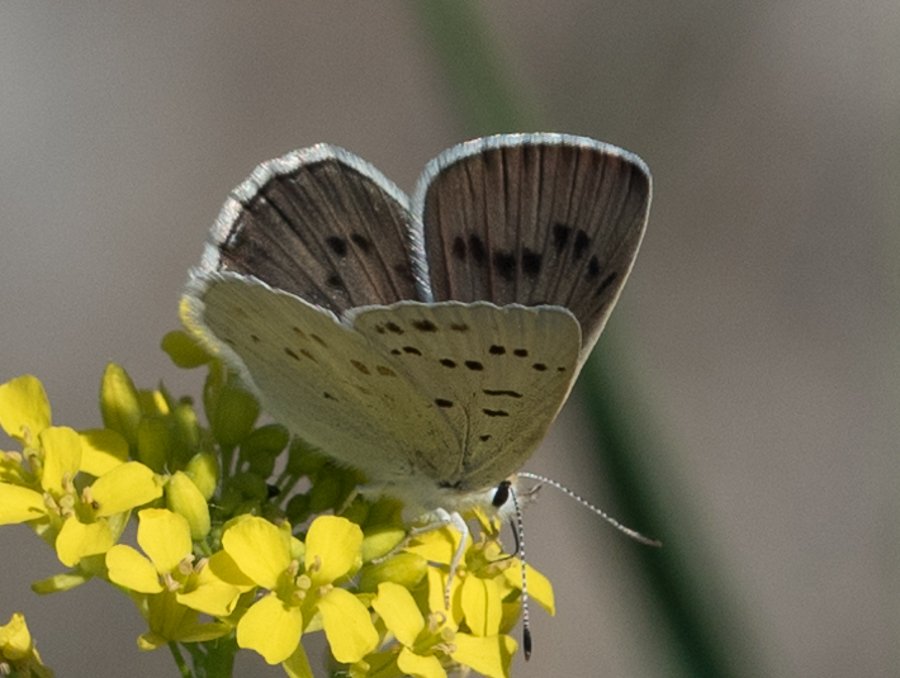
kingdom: Animalia
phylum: Arthropoda
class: Insecta
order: Lepidoptera
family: Lycaenidae
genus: Lycaena
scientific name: Lycaena heteronea
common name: Blue Copper
